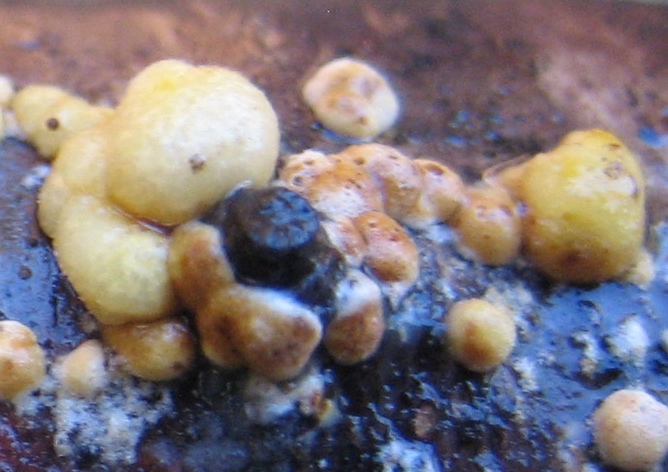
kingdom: Fungi
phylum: Ascomycota
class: Sordariomycetes
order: Hypocreales
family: Hypocreaceae
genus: Trichoderma
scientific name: Trichoderma
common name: kødkerne
